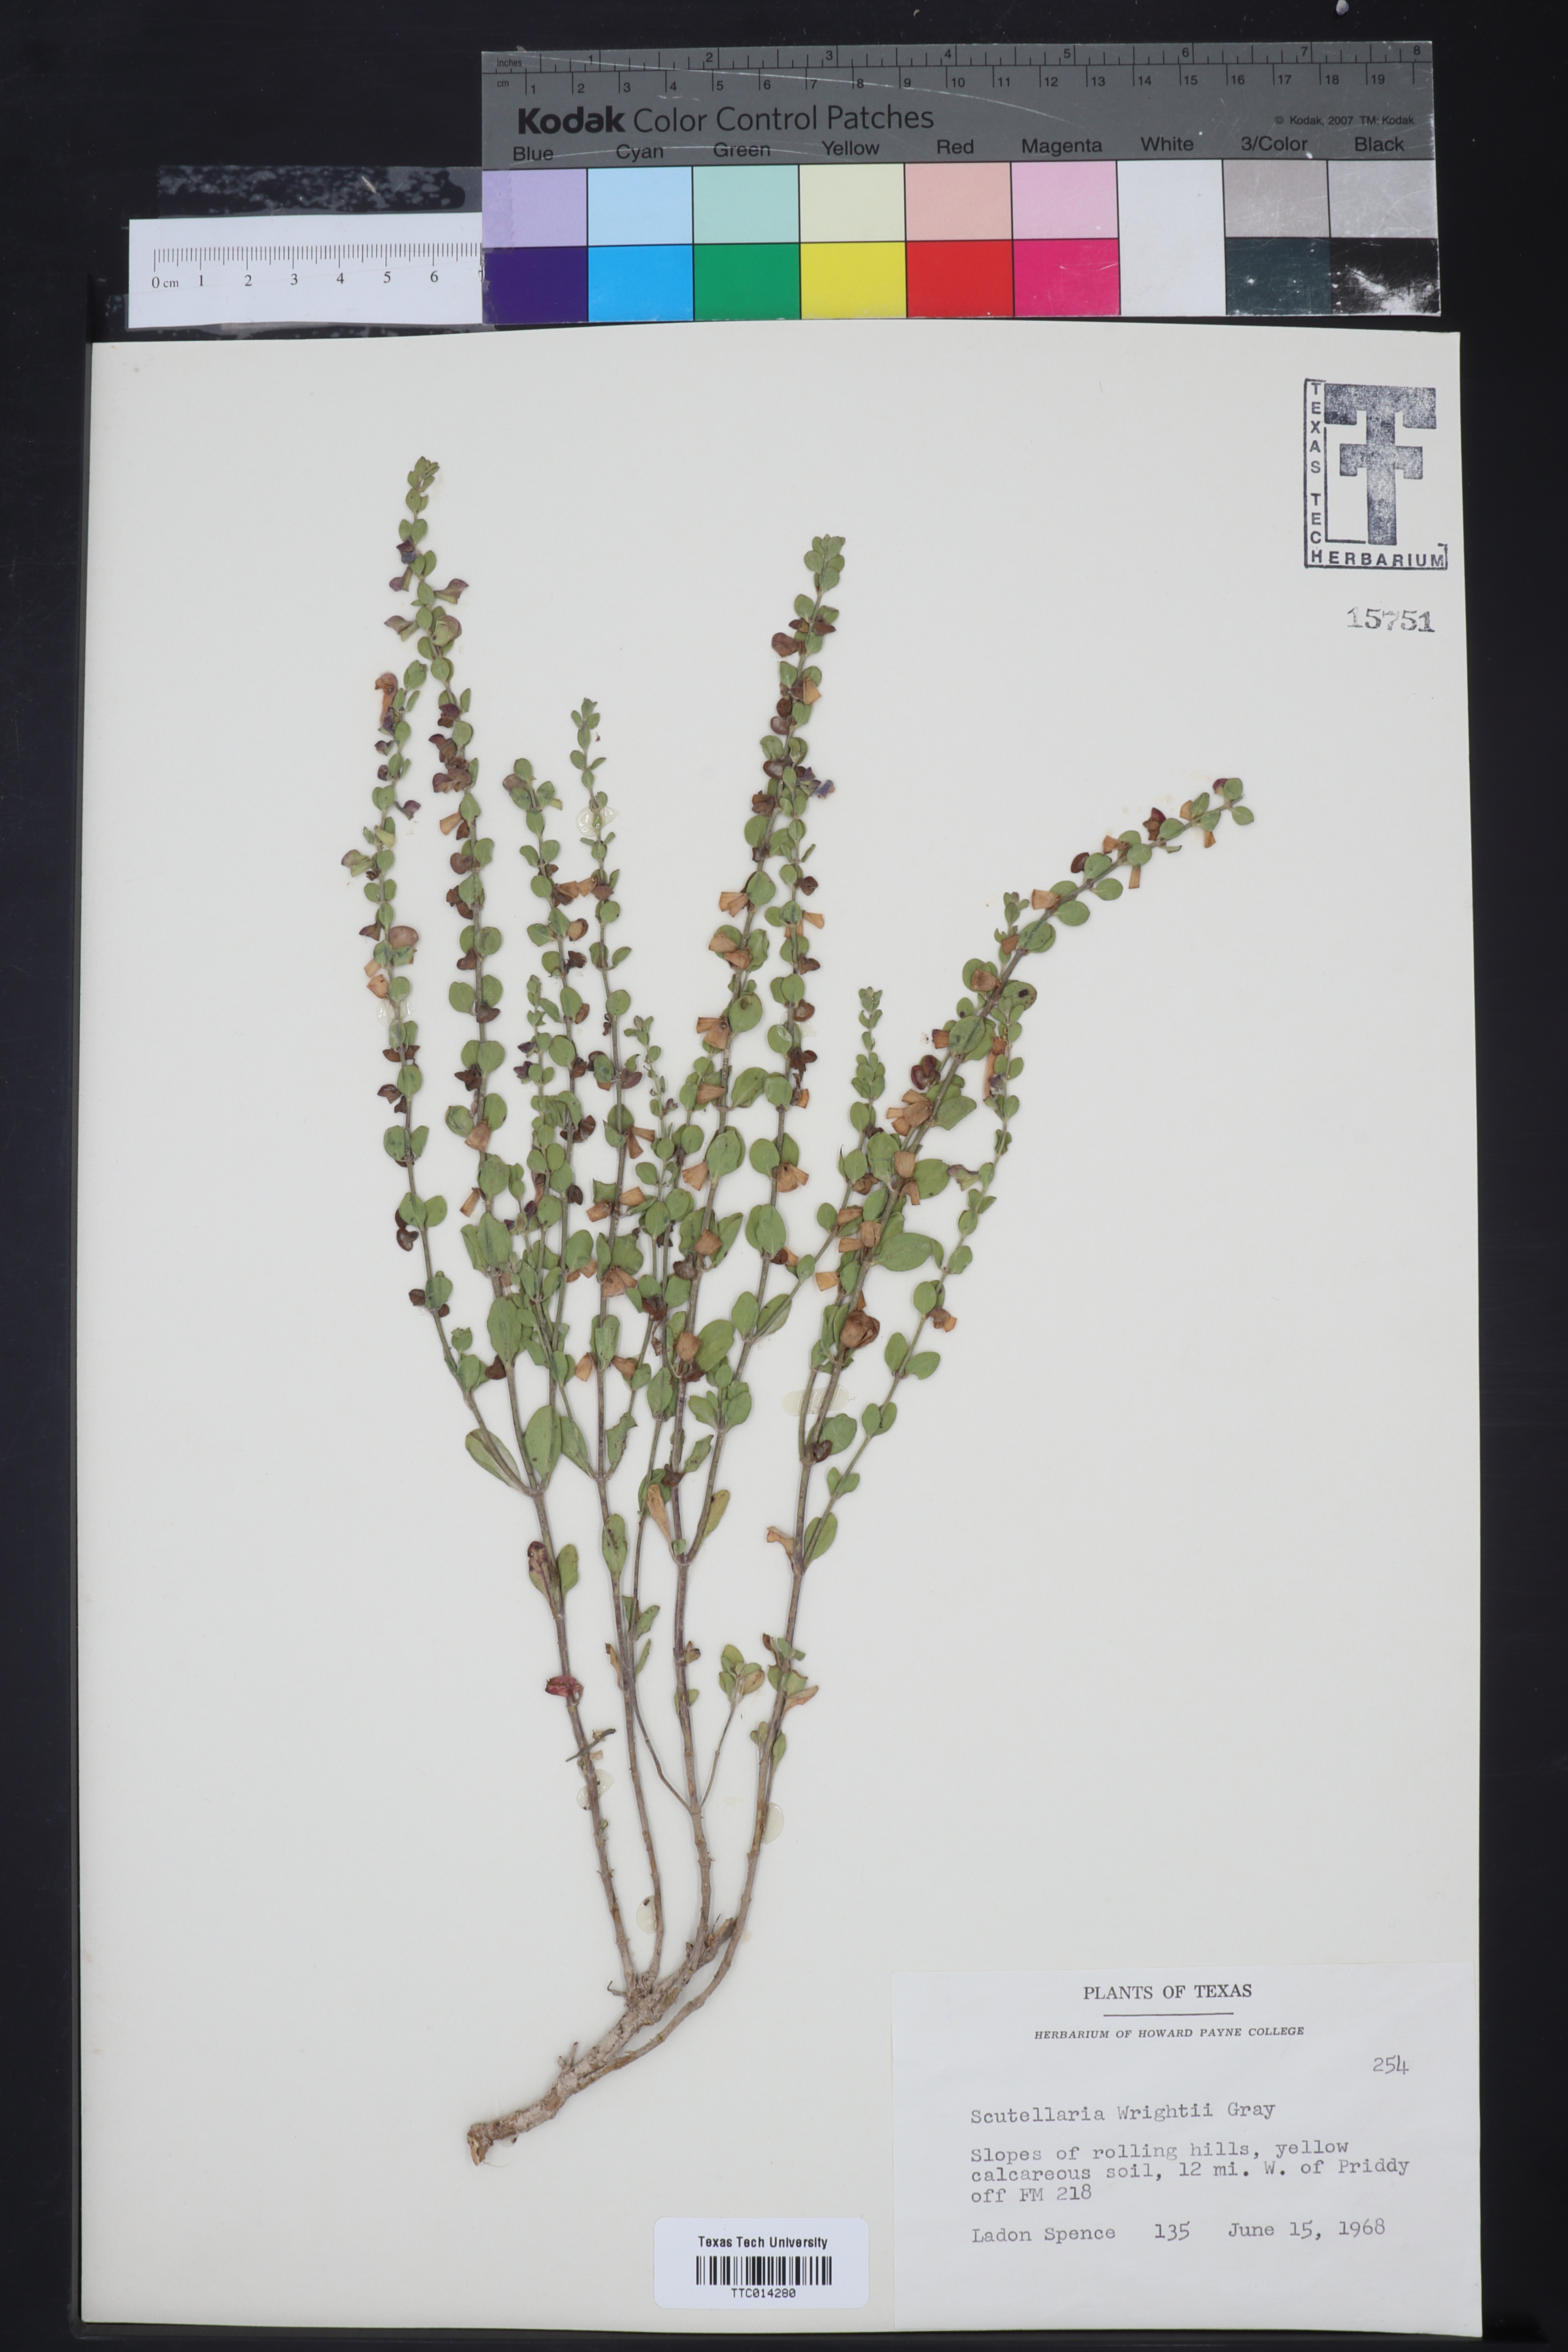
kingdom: Plantae
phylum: Tracheophyta
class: Magnoliopsida
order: Lamiales
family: Lamiaceae
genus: Scutellaria
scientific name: Scutellaria wrightii
